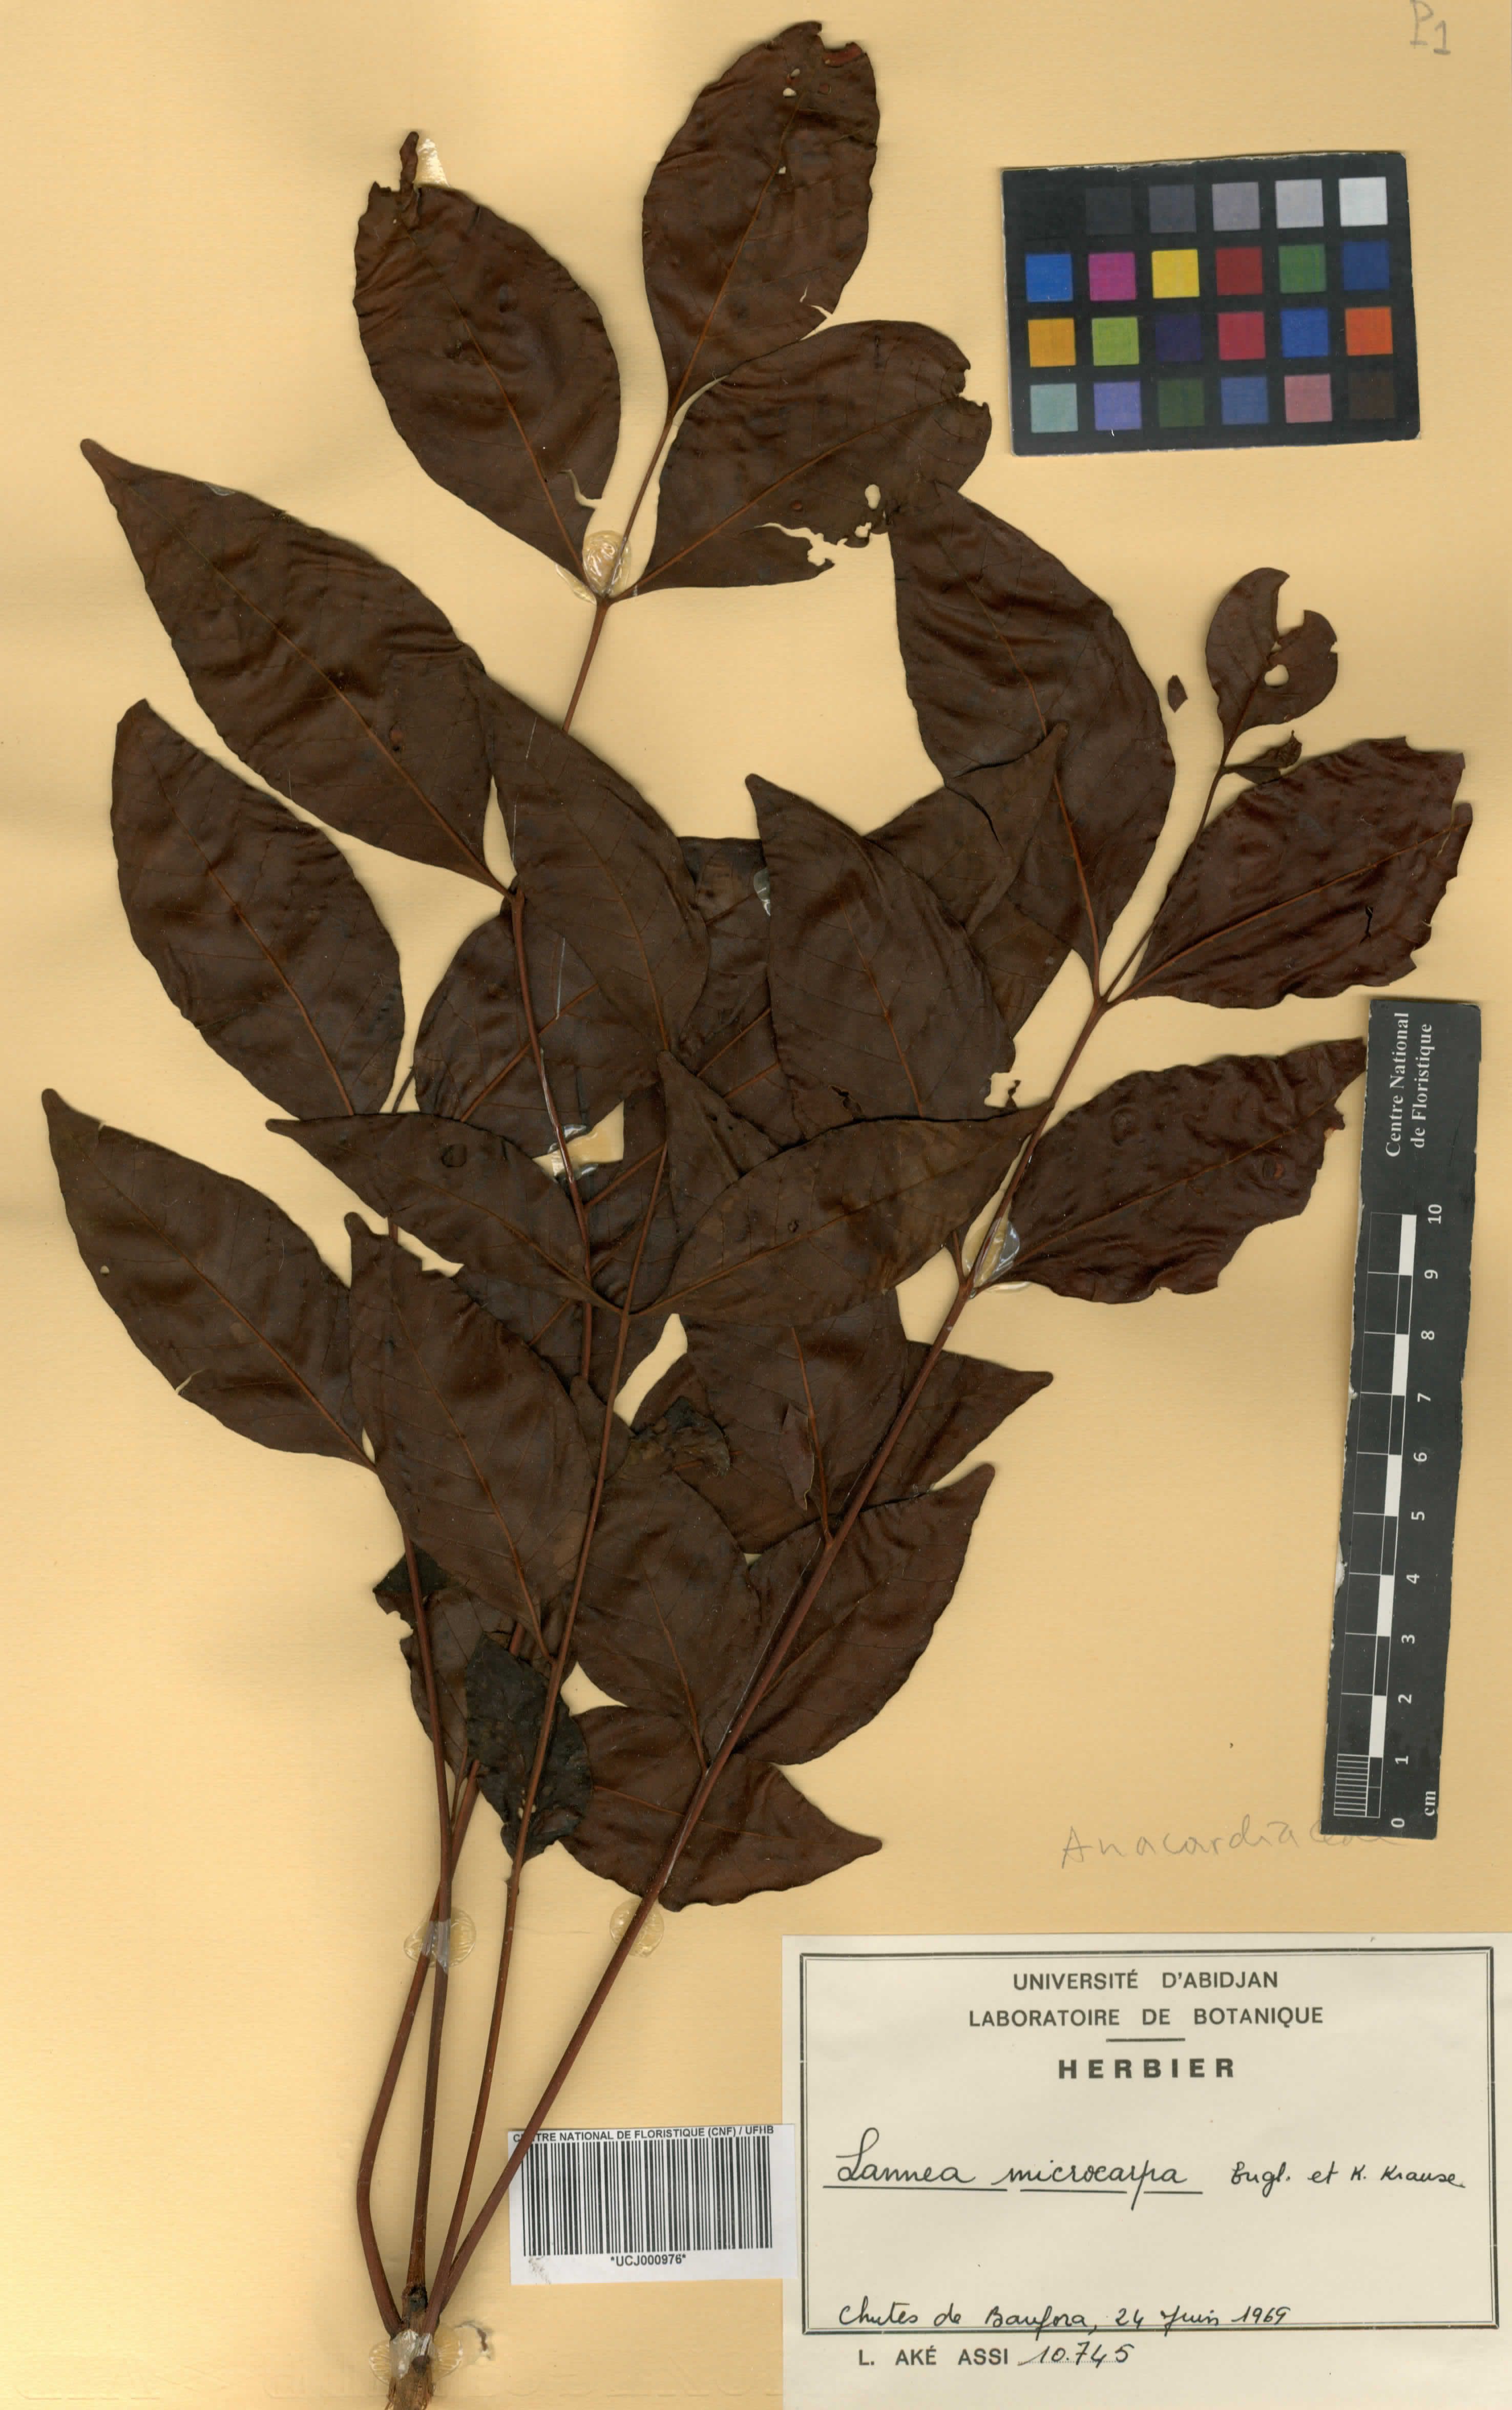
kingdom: Plantae
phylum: Tracheophyta
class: Magnoliopsida
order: Sapindales
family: Anacardiaceae
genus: Lannea
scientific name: Lannea microcarpa
